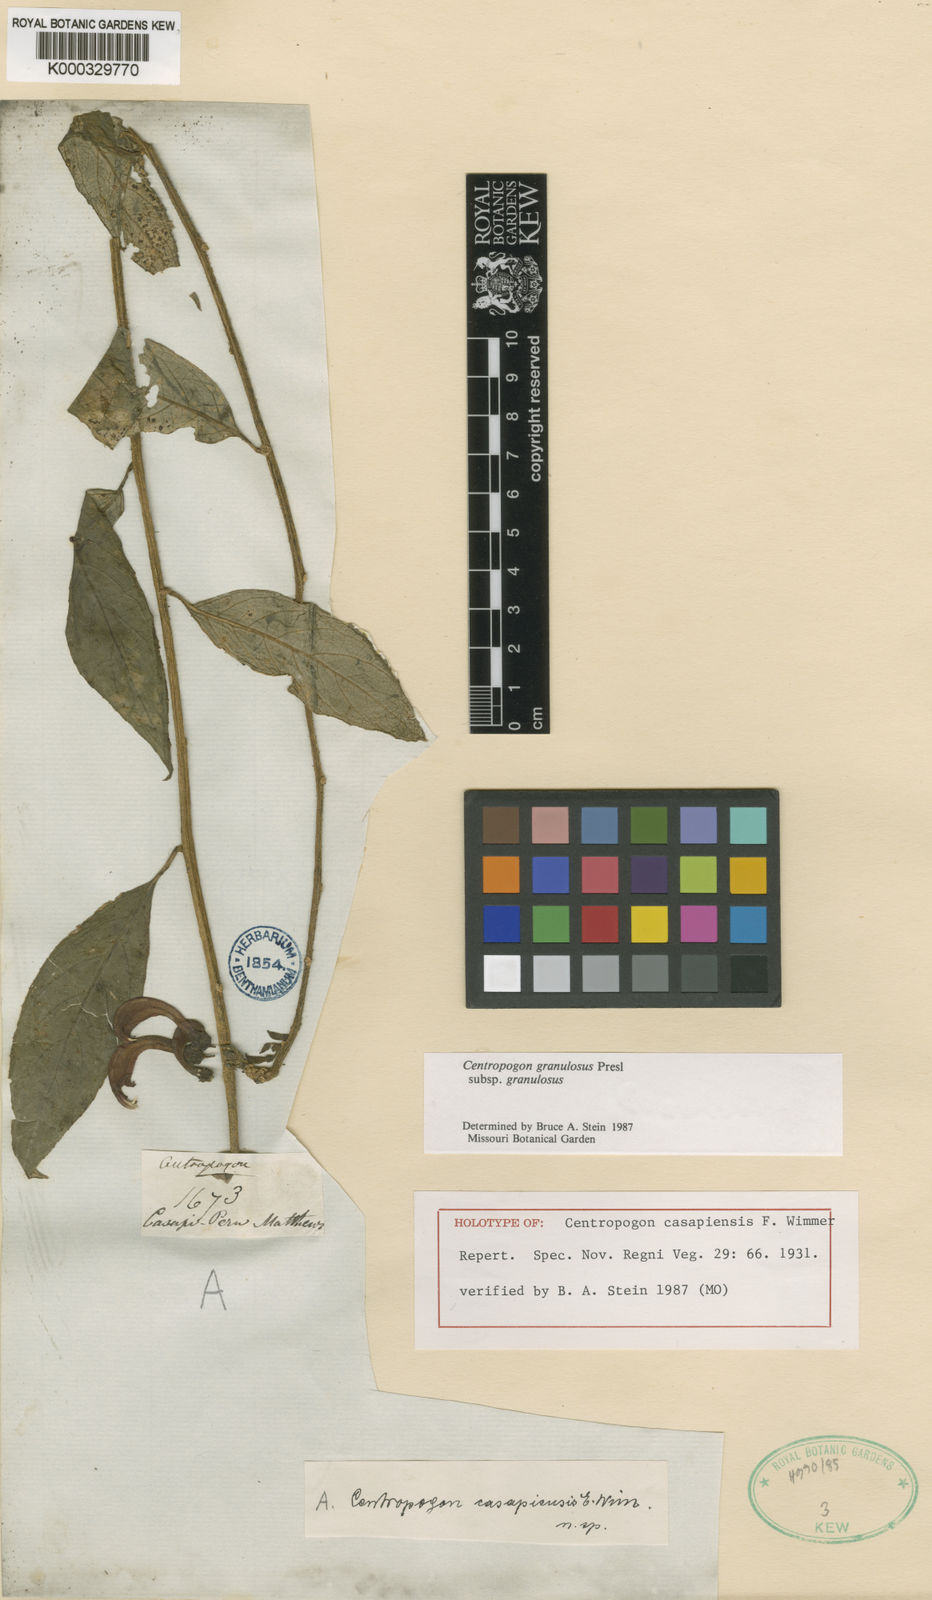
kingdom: Plantae
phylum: Tracheophyta
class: Magnoliopsida
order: Asterales
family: Campanulaceae
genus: Centropogon
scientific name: Centropogon granulosus
